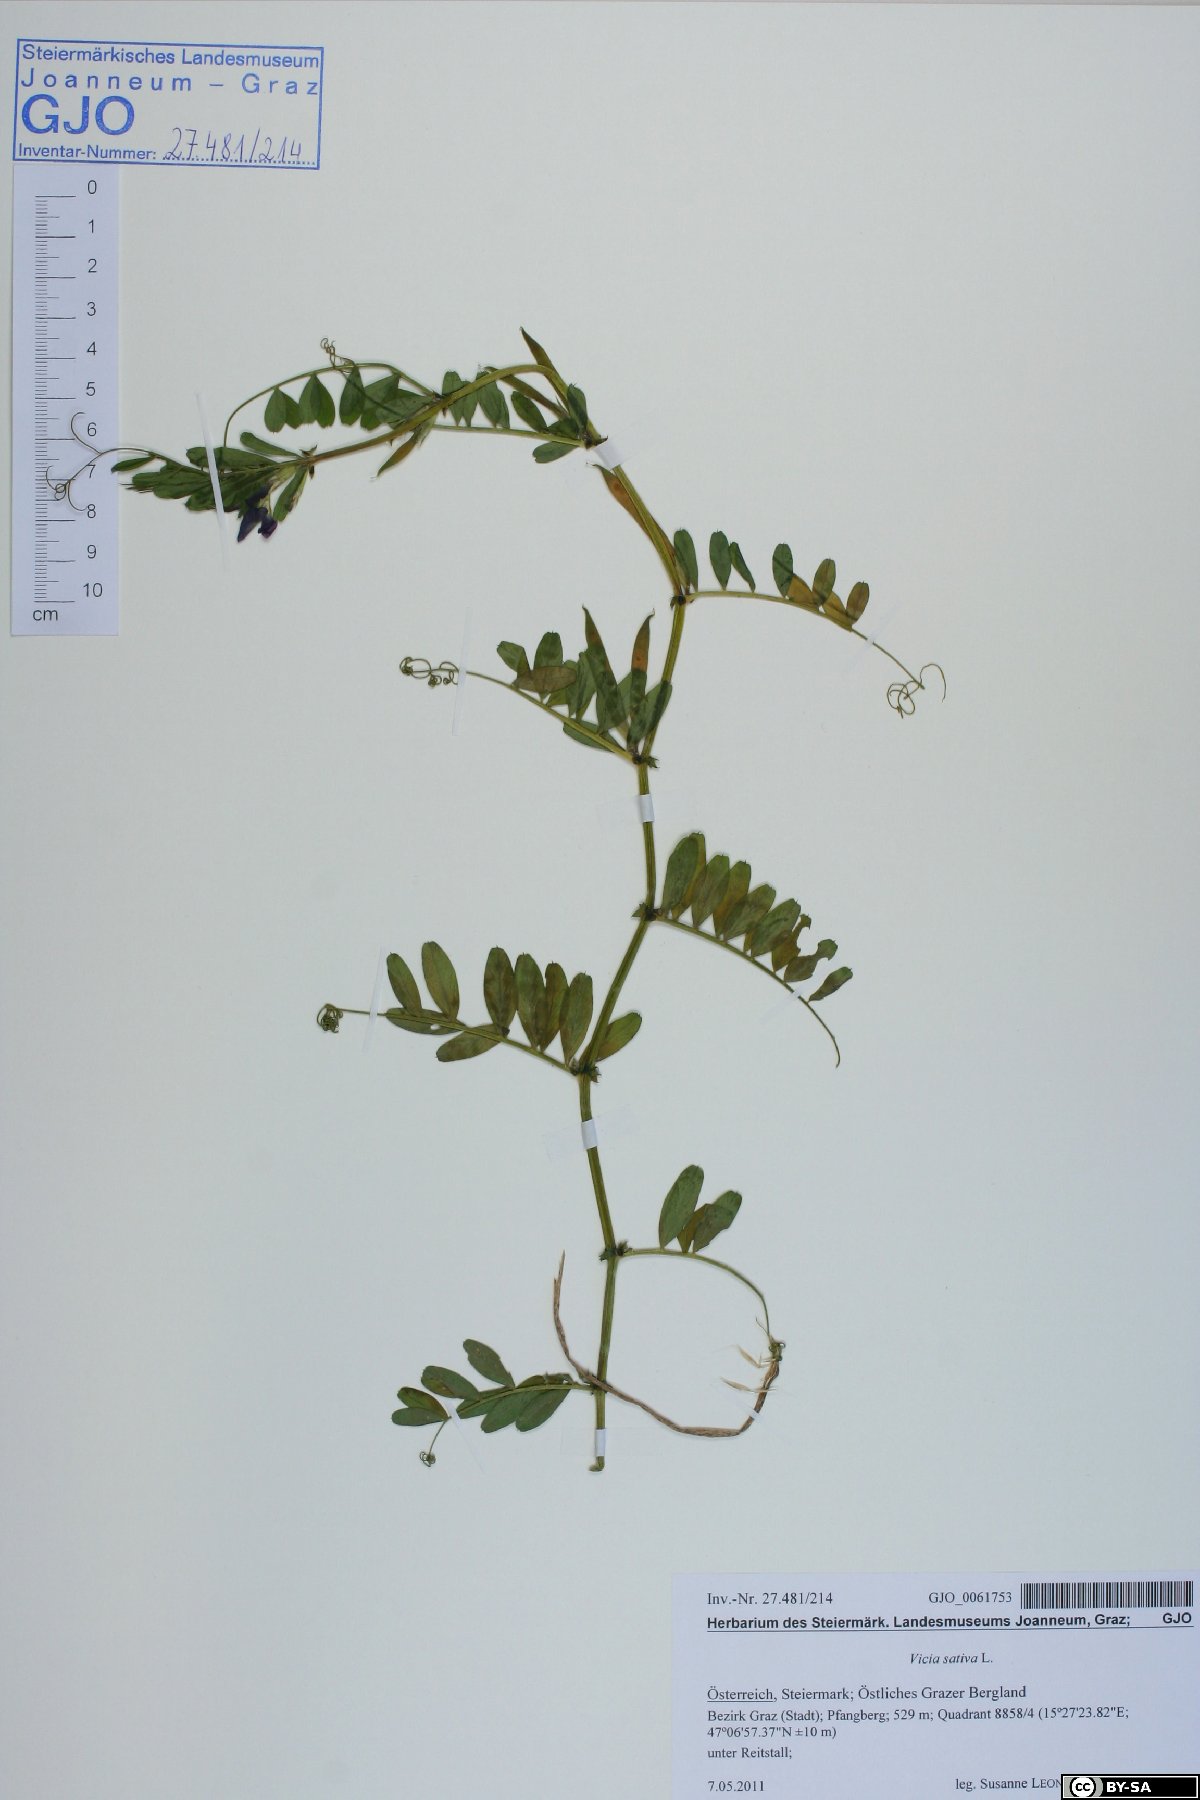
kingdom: Plantae
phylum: Tracheophyta
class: Magnoliopsida
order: Fabales
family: Fabaceae
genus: Vicia
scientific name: Vicia sativa
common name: Garden vetch
